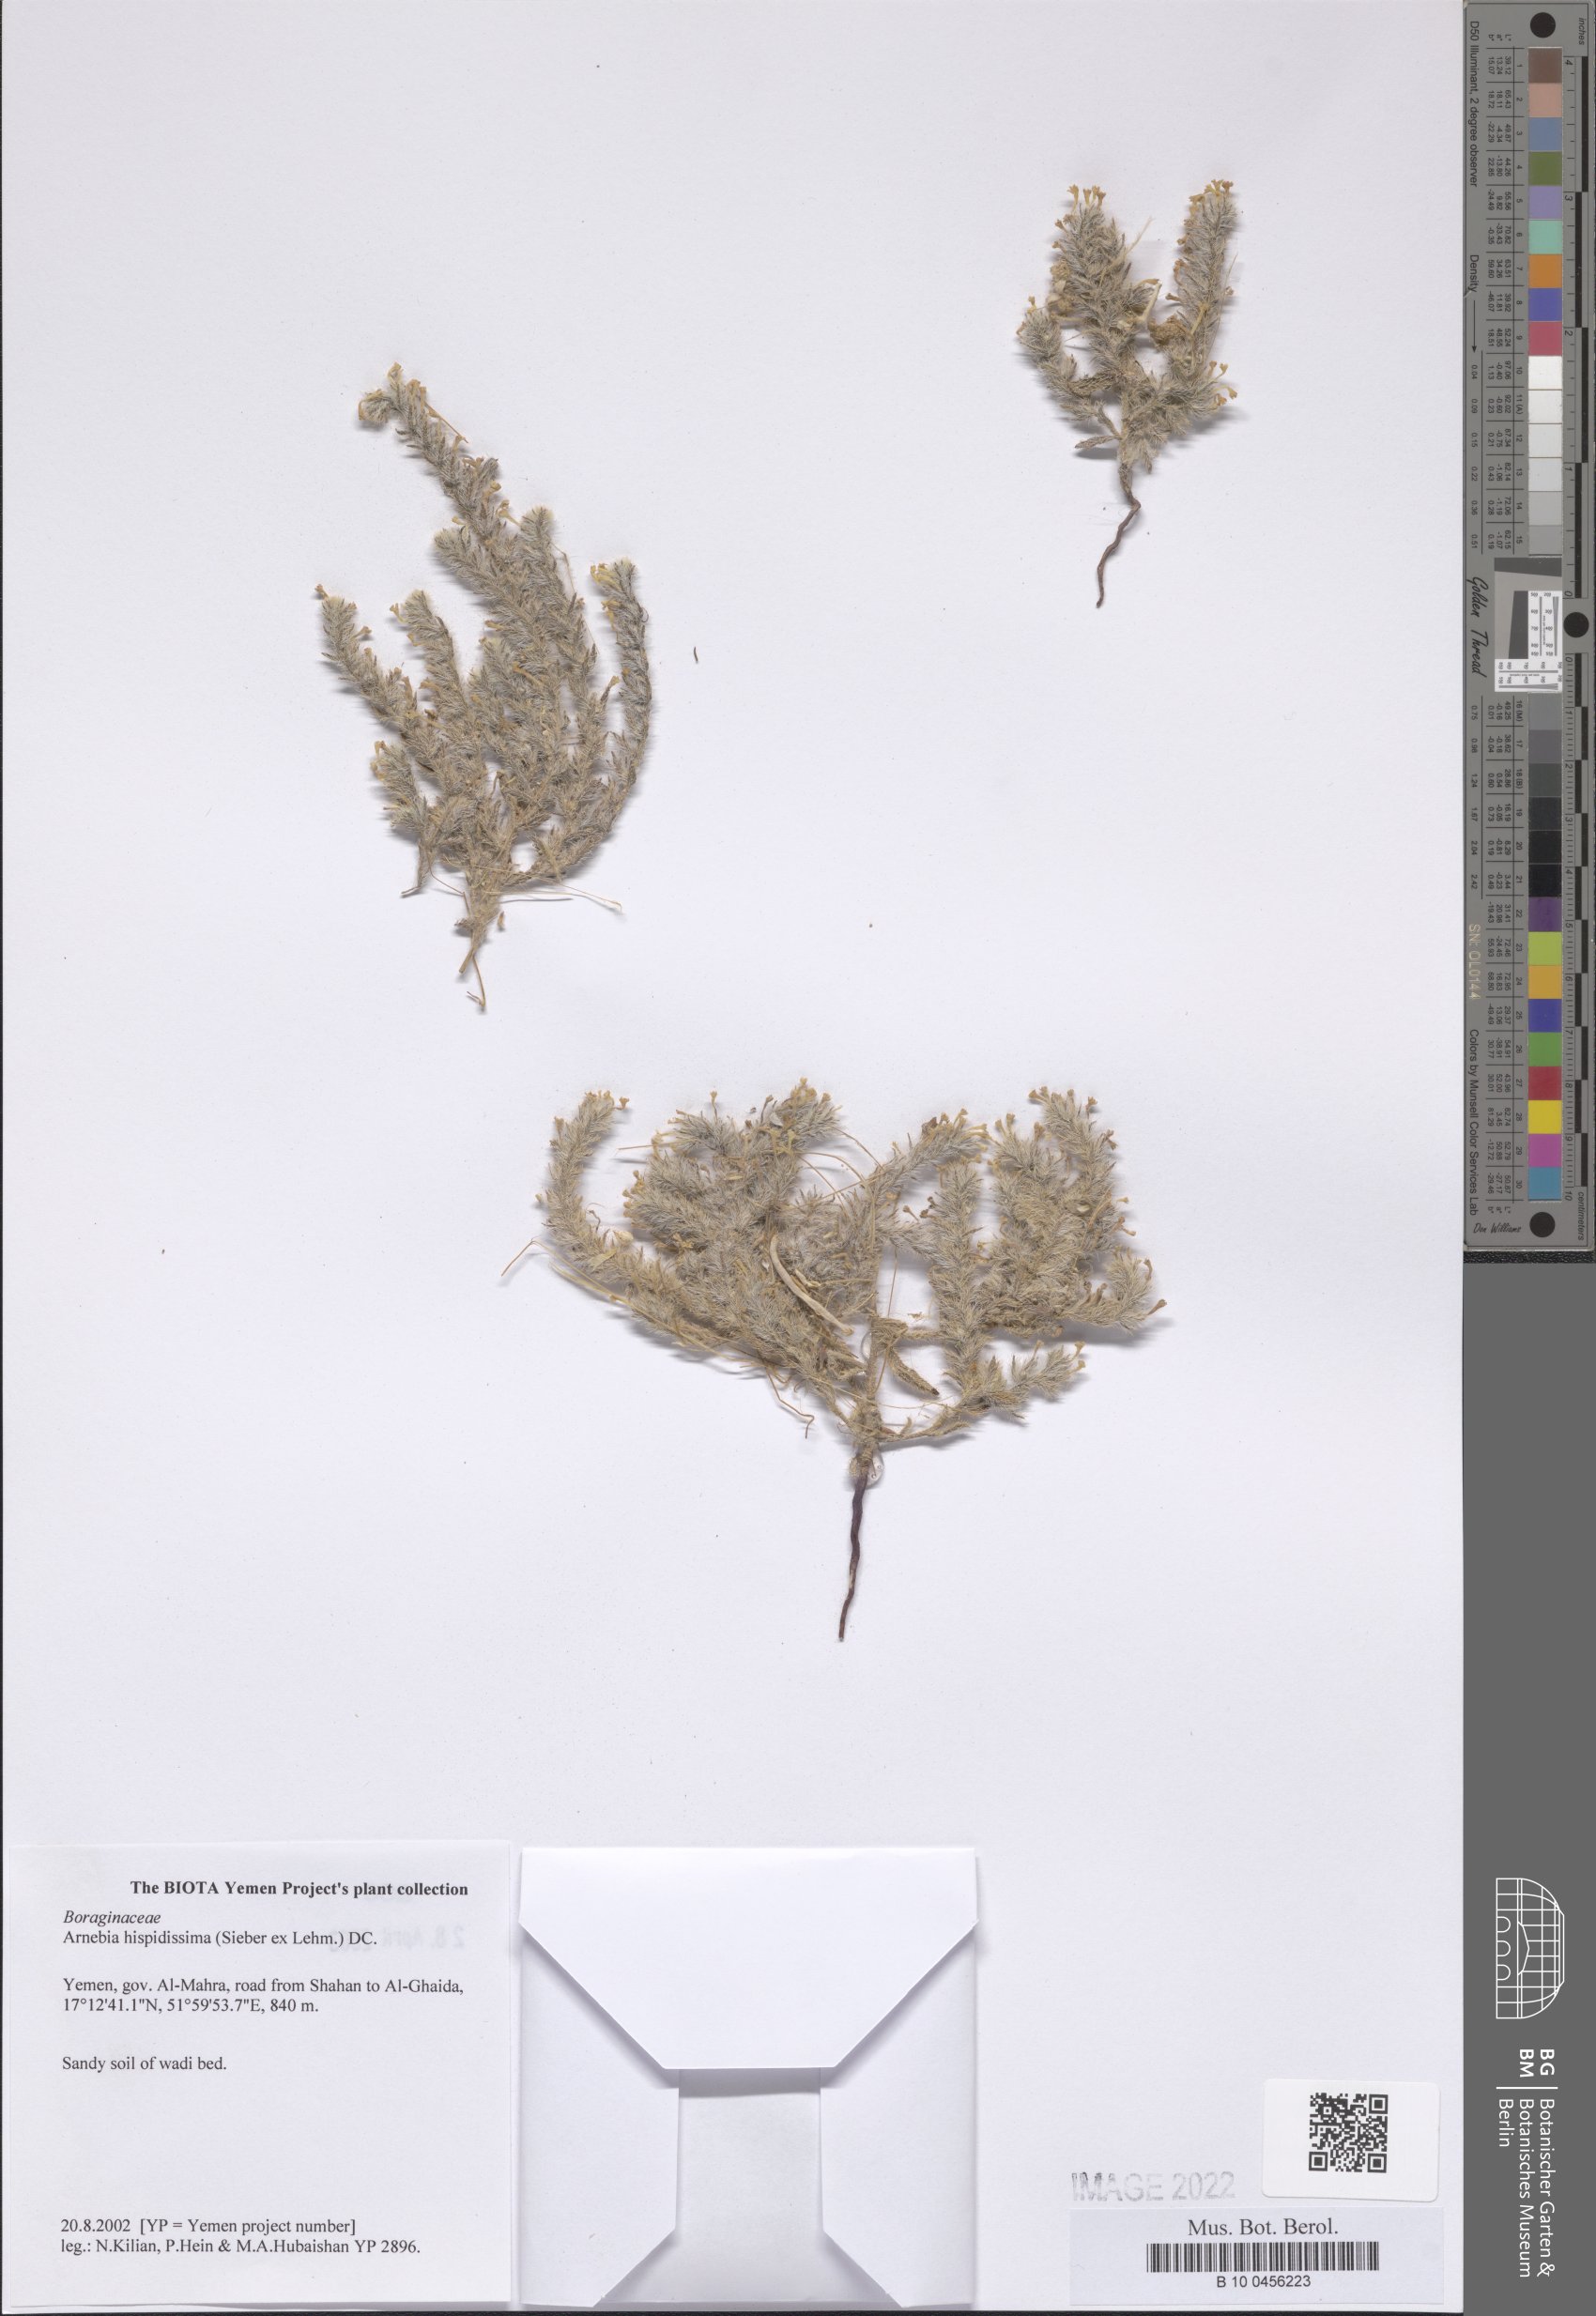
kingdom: Plantae
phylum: Tracheophyta
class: Magnoliopsida
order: Boraginales
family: Boraginaceae
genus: Arnebia
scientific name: Arnebia hispidissima
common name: Arabian-primrose
